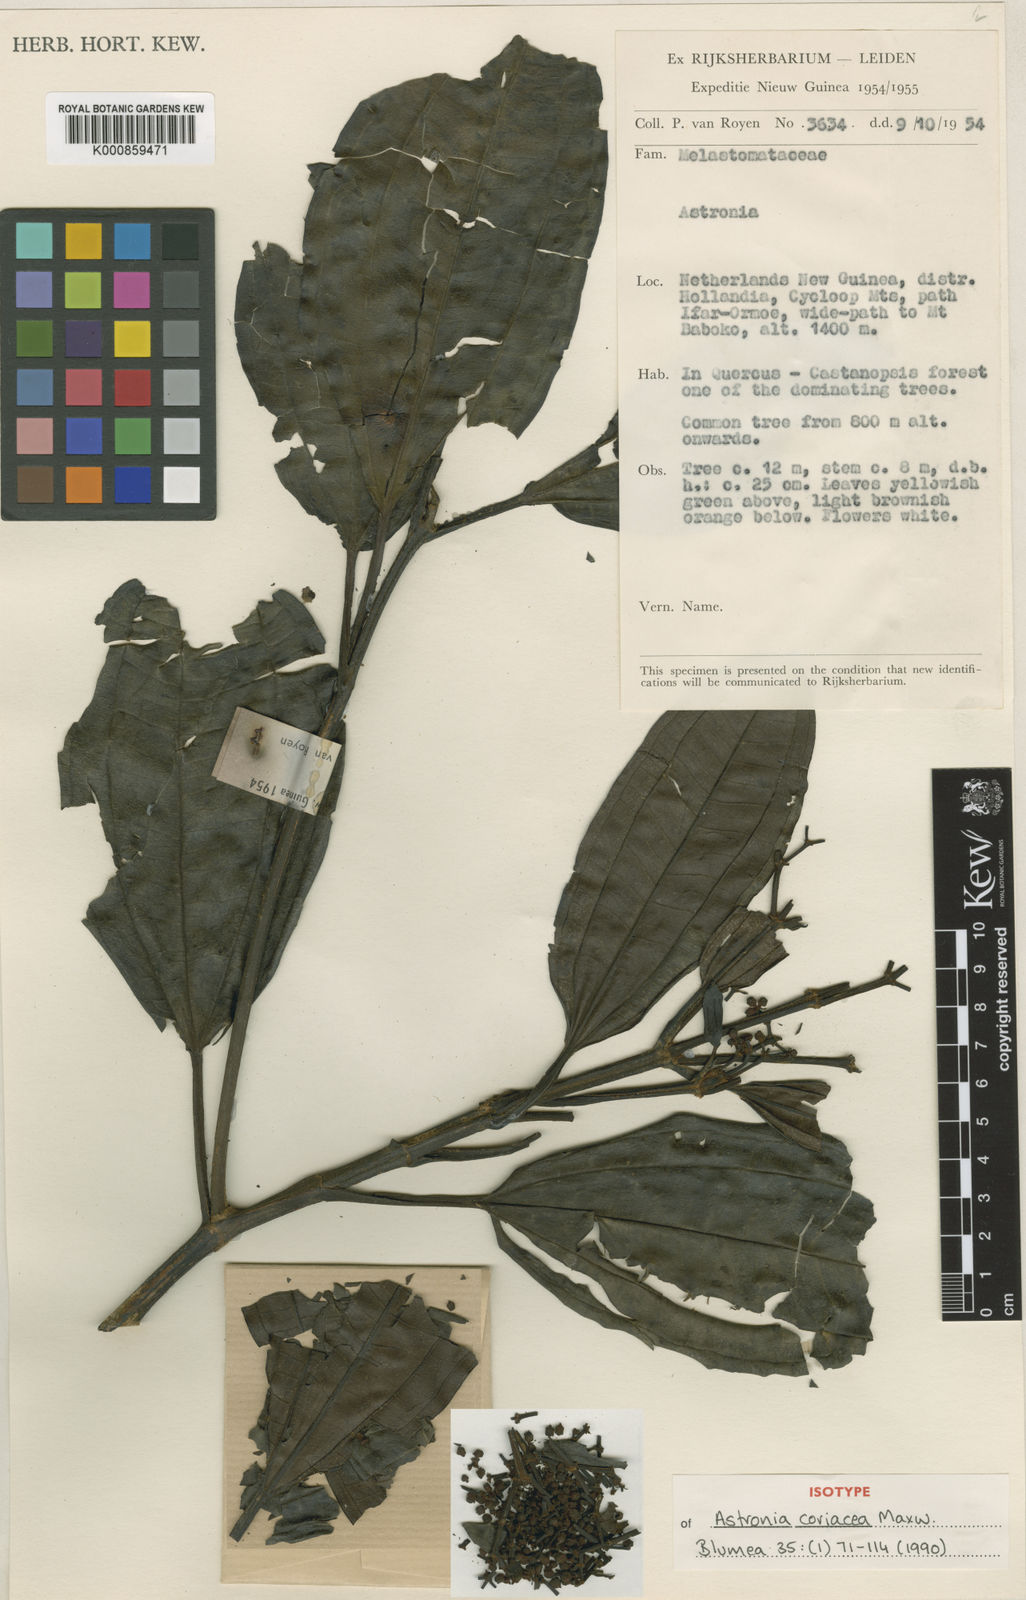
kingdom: Plantae
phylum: Tracheophyta
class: Magnoliopsida
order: Myrtales
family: Melastomataceae
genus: Astronia
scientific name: Astronia coriacea
